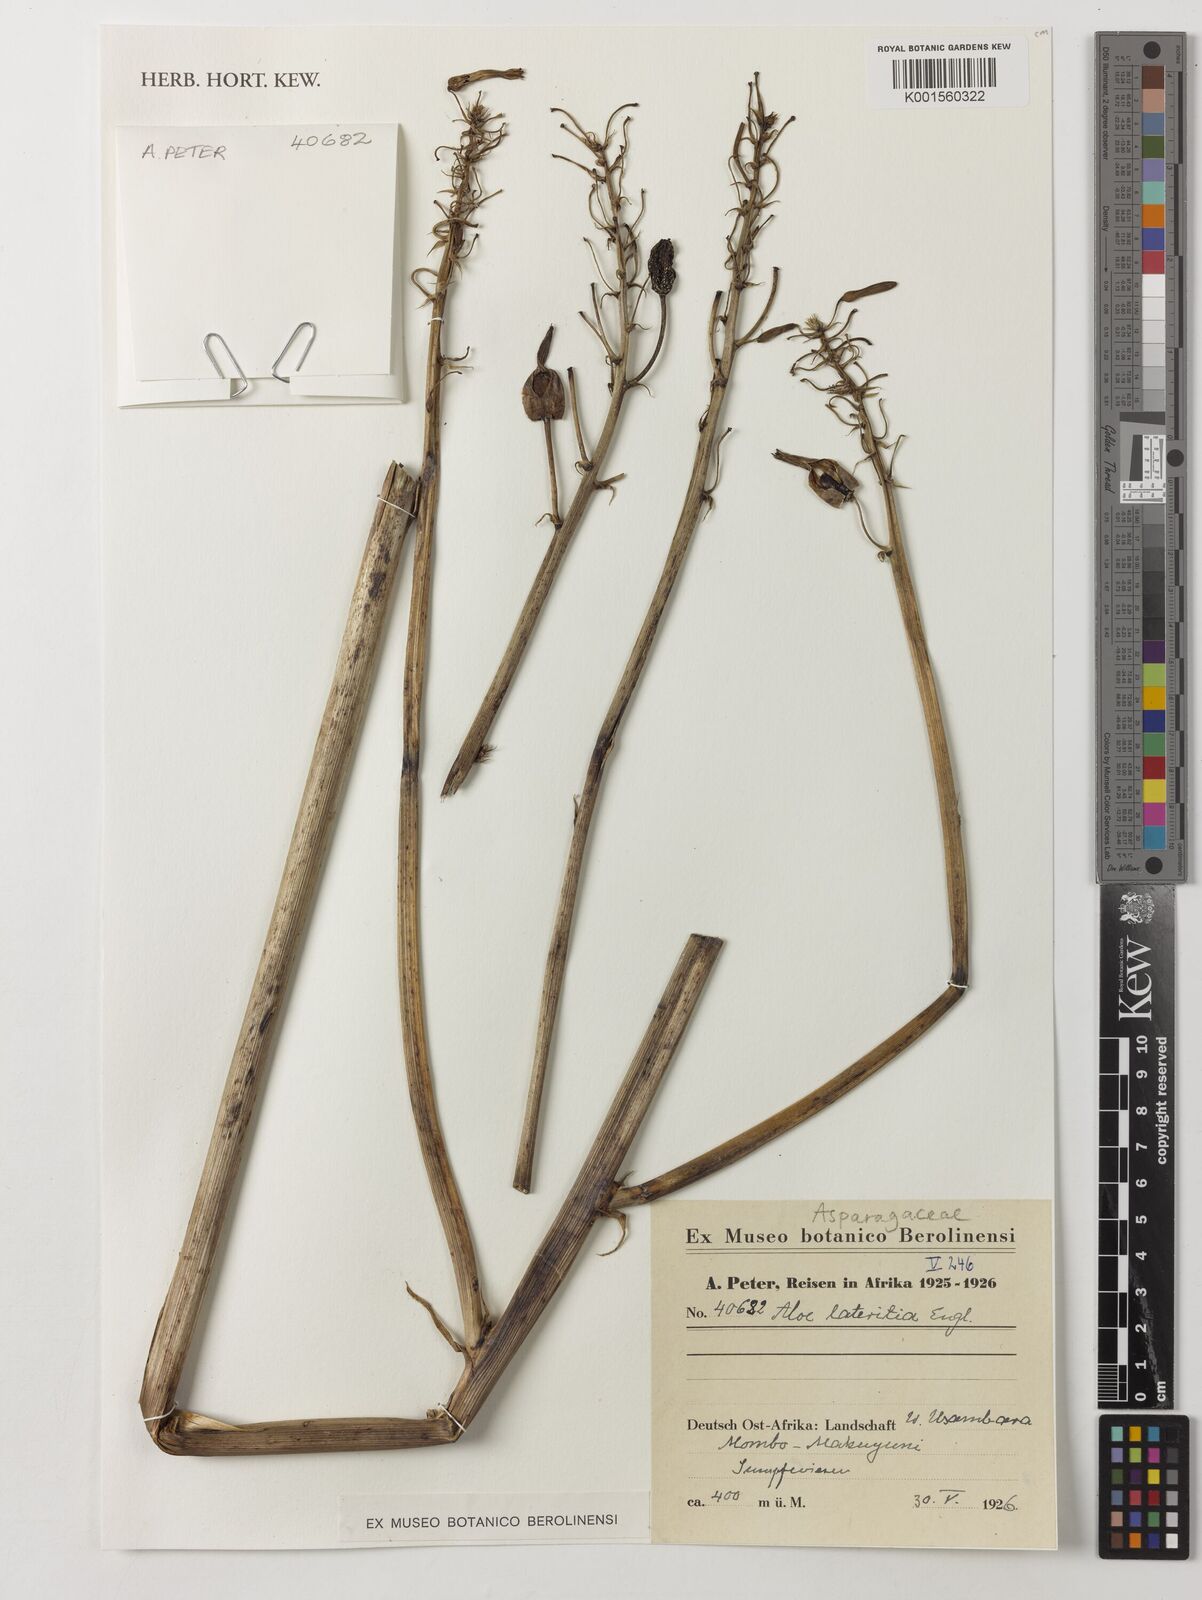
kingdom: Plantae
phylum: Tracheophyta
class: Liliopsida
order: Asparagales
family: Asphodelaceae
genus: Aloe
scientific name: Aloe lateritia
